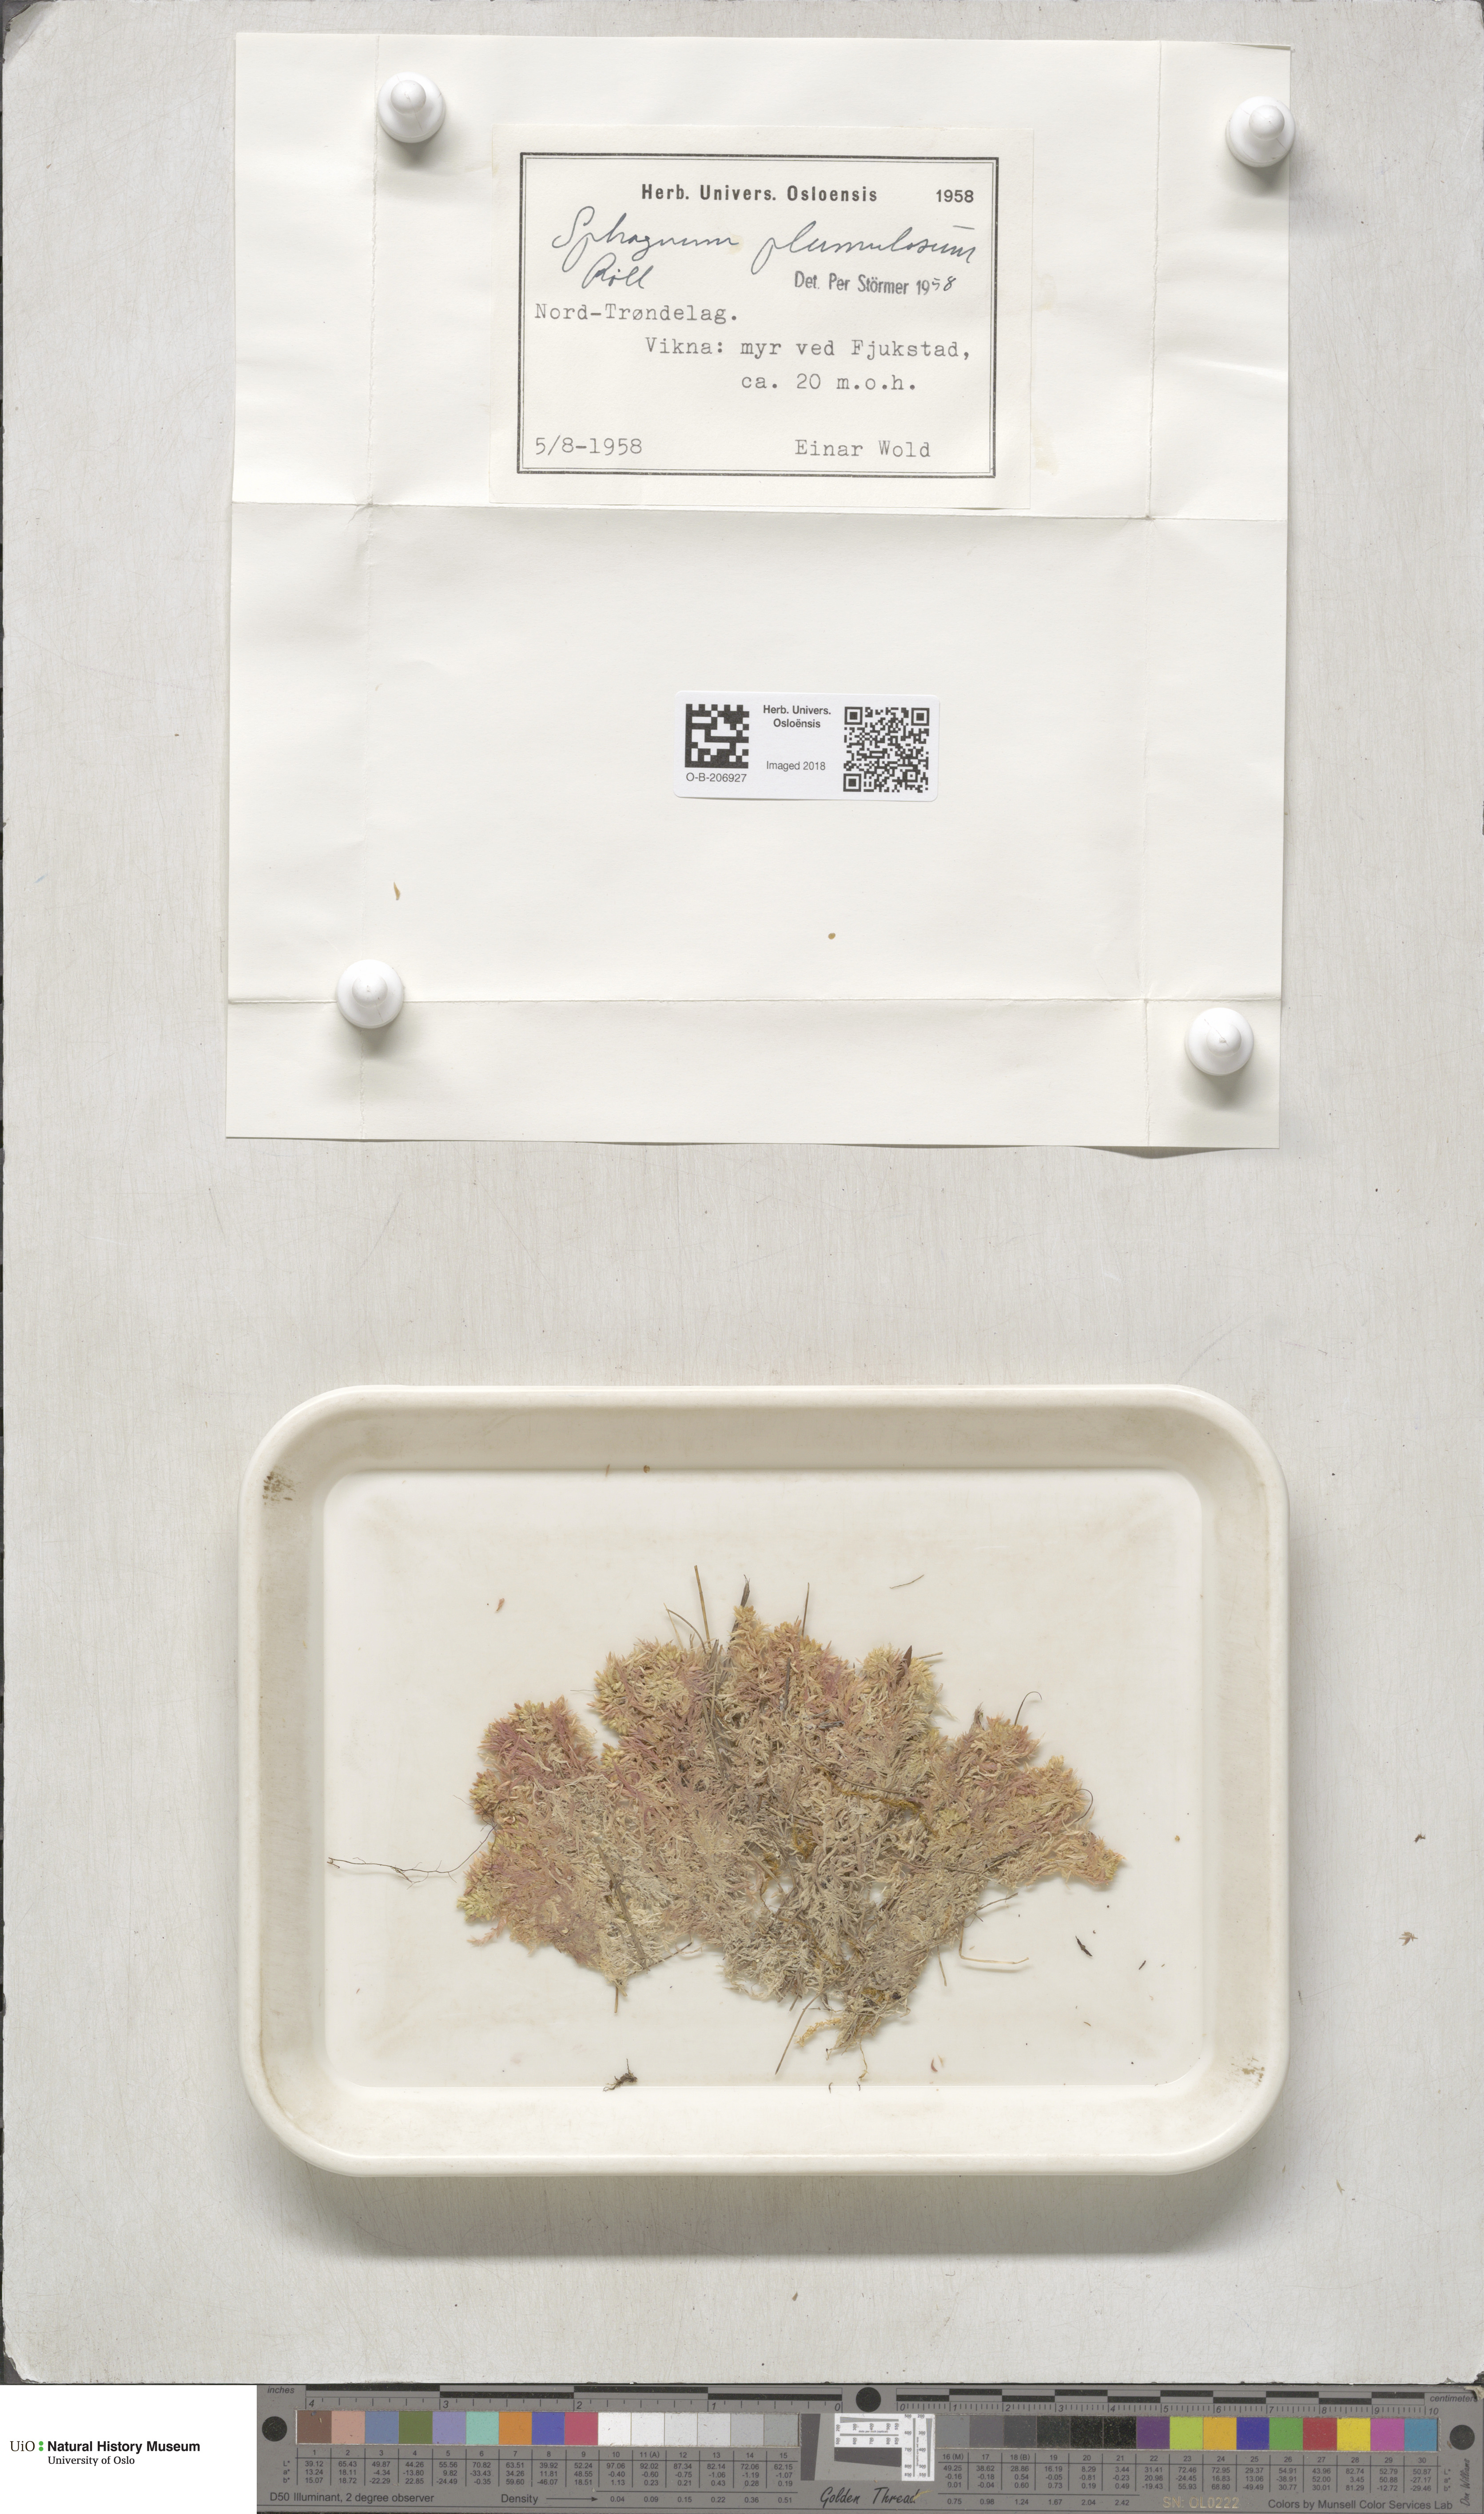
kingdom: Plantae
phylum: Bryophyta
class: Sphagnopsida
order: Sphagnales
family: Sphagnaceae
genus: Sphagnum
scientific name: Sphagnum subnitens
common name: Lustrous bog-moss
